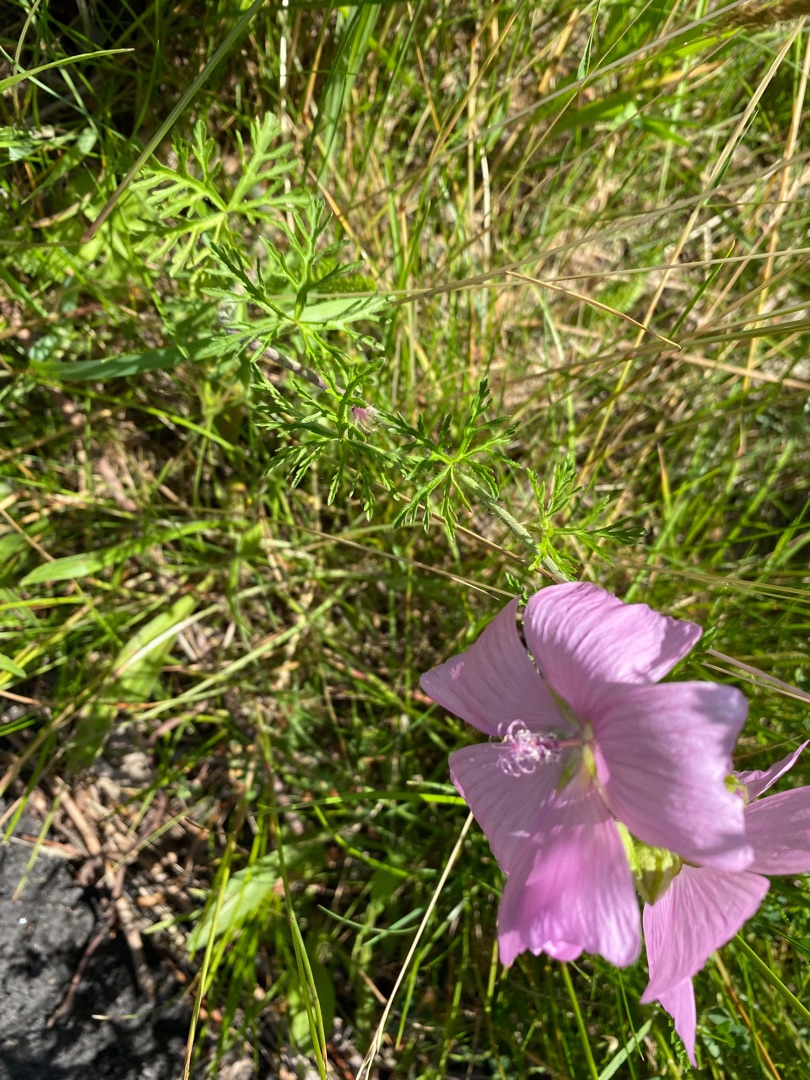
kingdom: Plantae
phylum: Tracheophyta
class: Magnoliopsida
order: Malvales
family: Malvaceae
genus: Malva
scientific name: Malva moschata
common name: Moskus-katost
